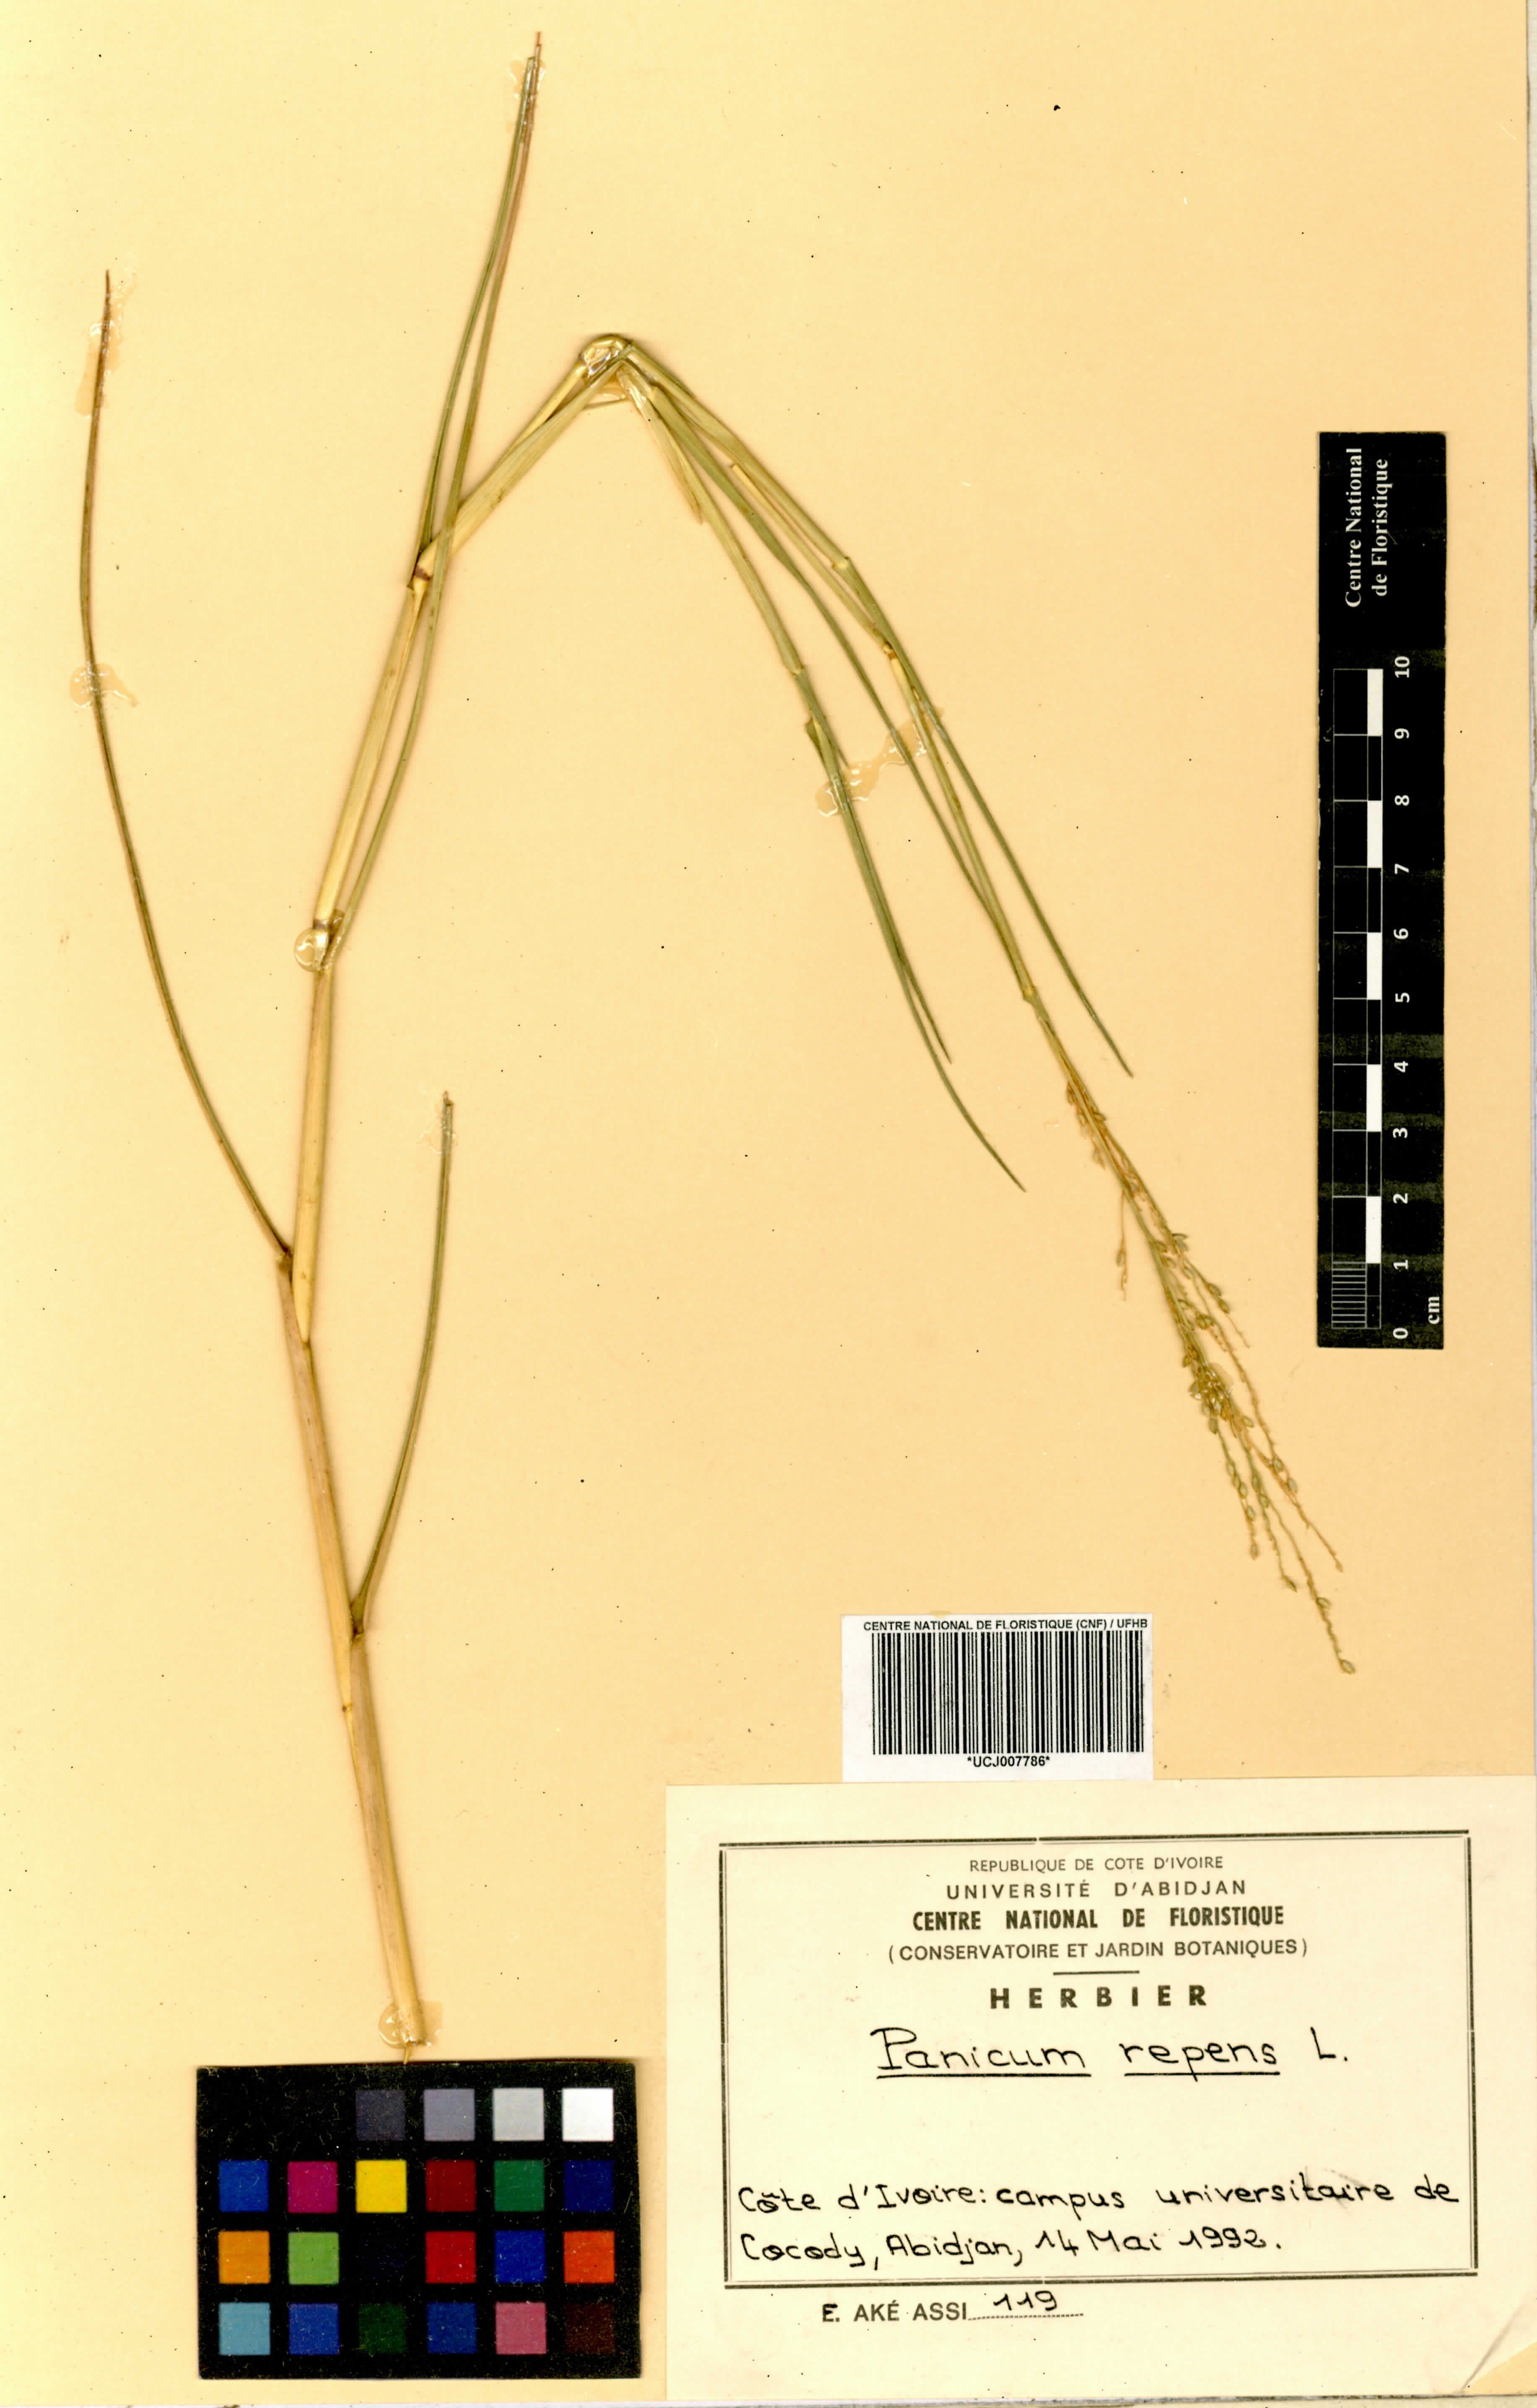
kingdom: Plantae
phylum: Tracheophyta
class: Liliopsida
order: Poales
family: Poaceae
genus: Panicum
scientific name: Panicum repens
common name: Torpedo grass
